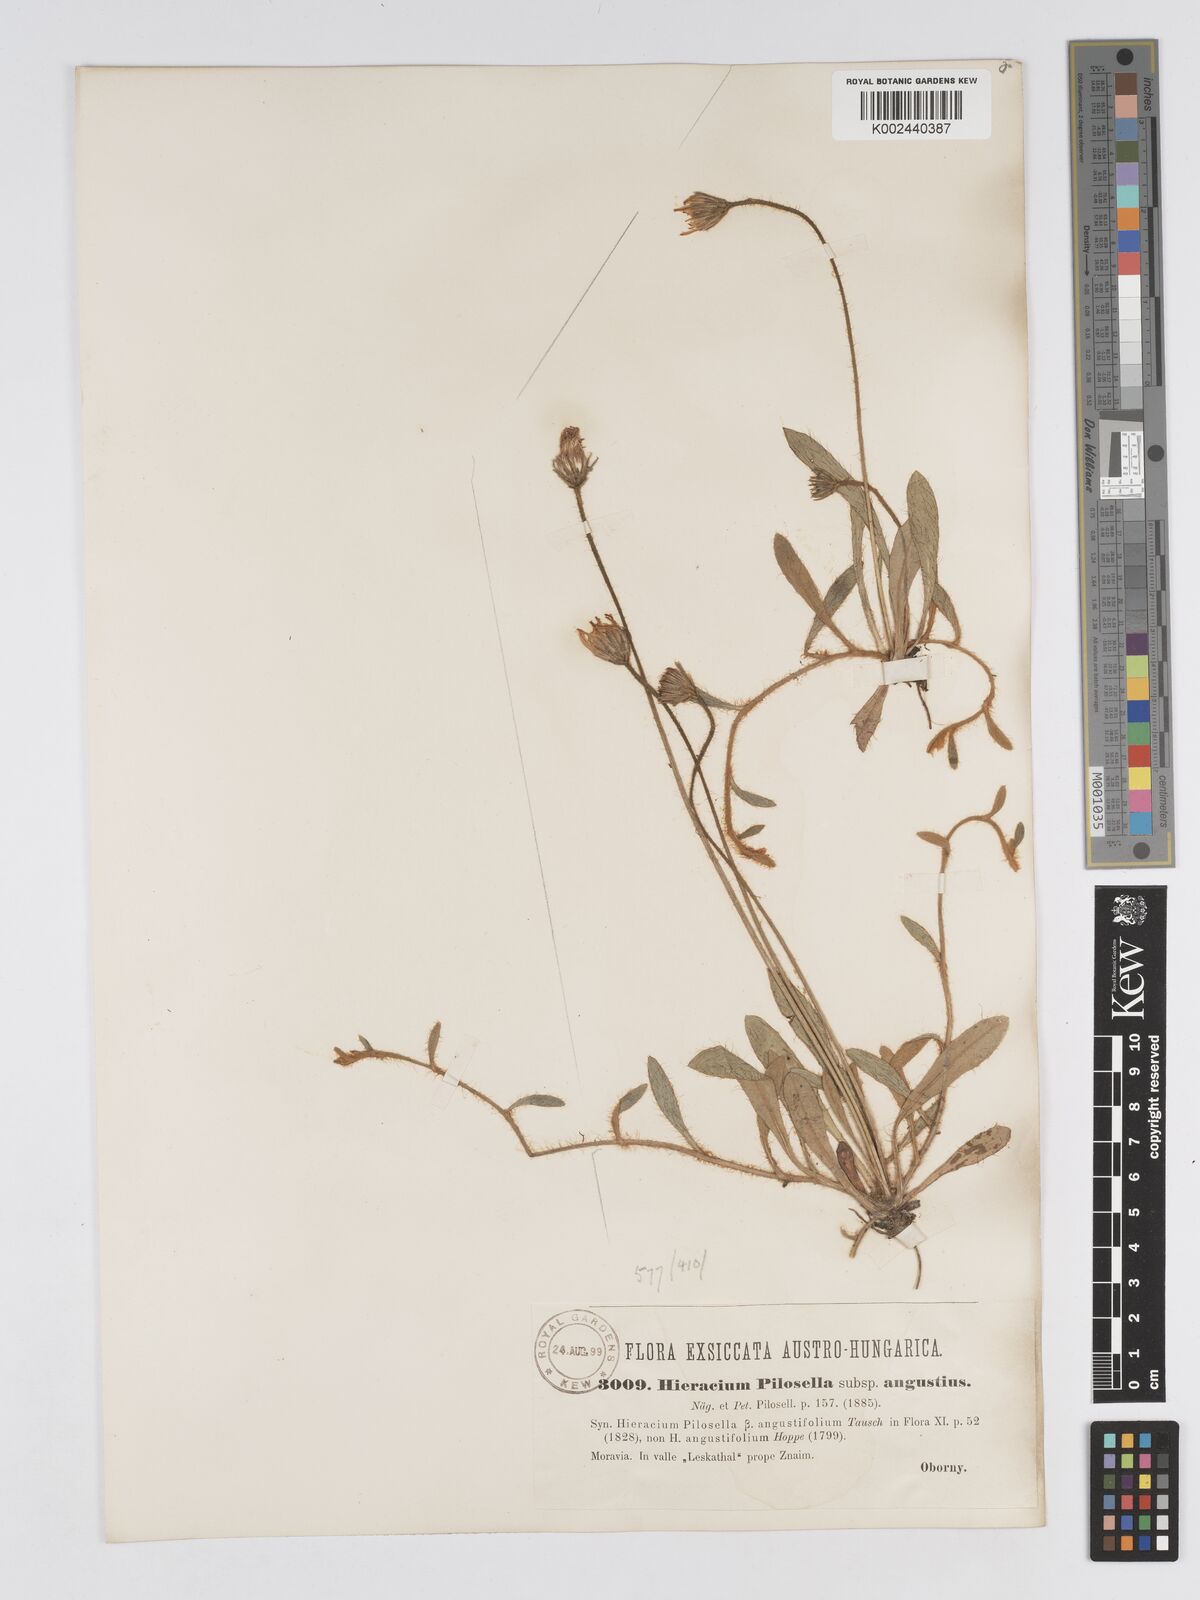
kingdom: Plantae
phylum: Tracheophyta
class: Magnoliopsida
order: Asterales
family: Asteraceae
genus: Pilosella
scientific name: Pilosella officinarum
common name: Mouse-ear hawkweed
